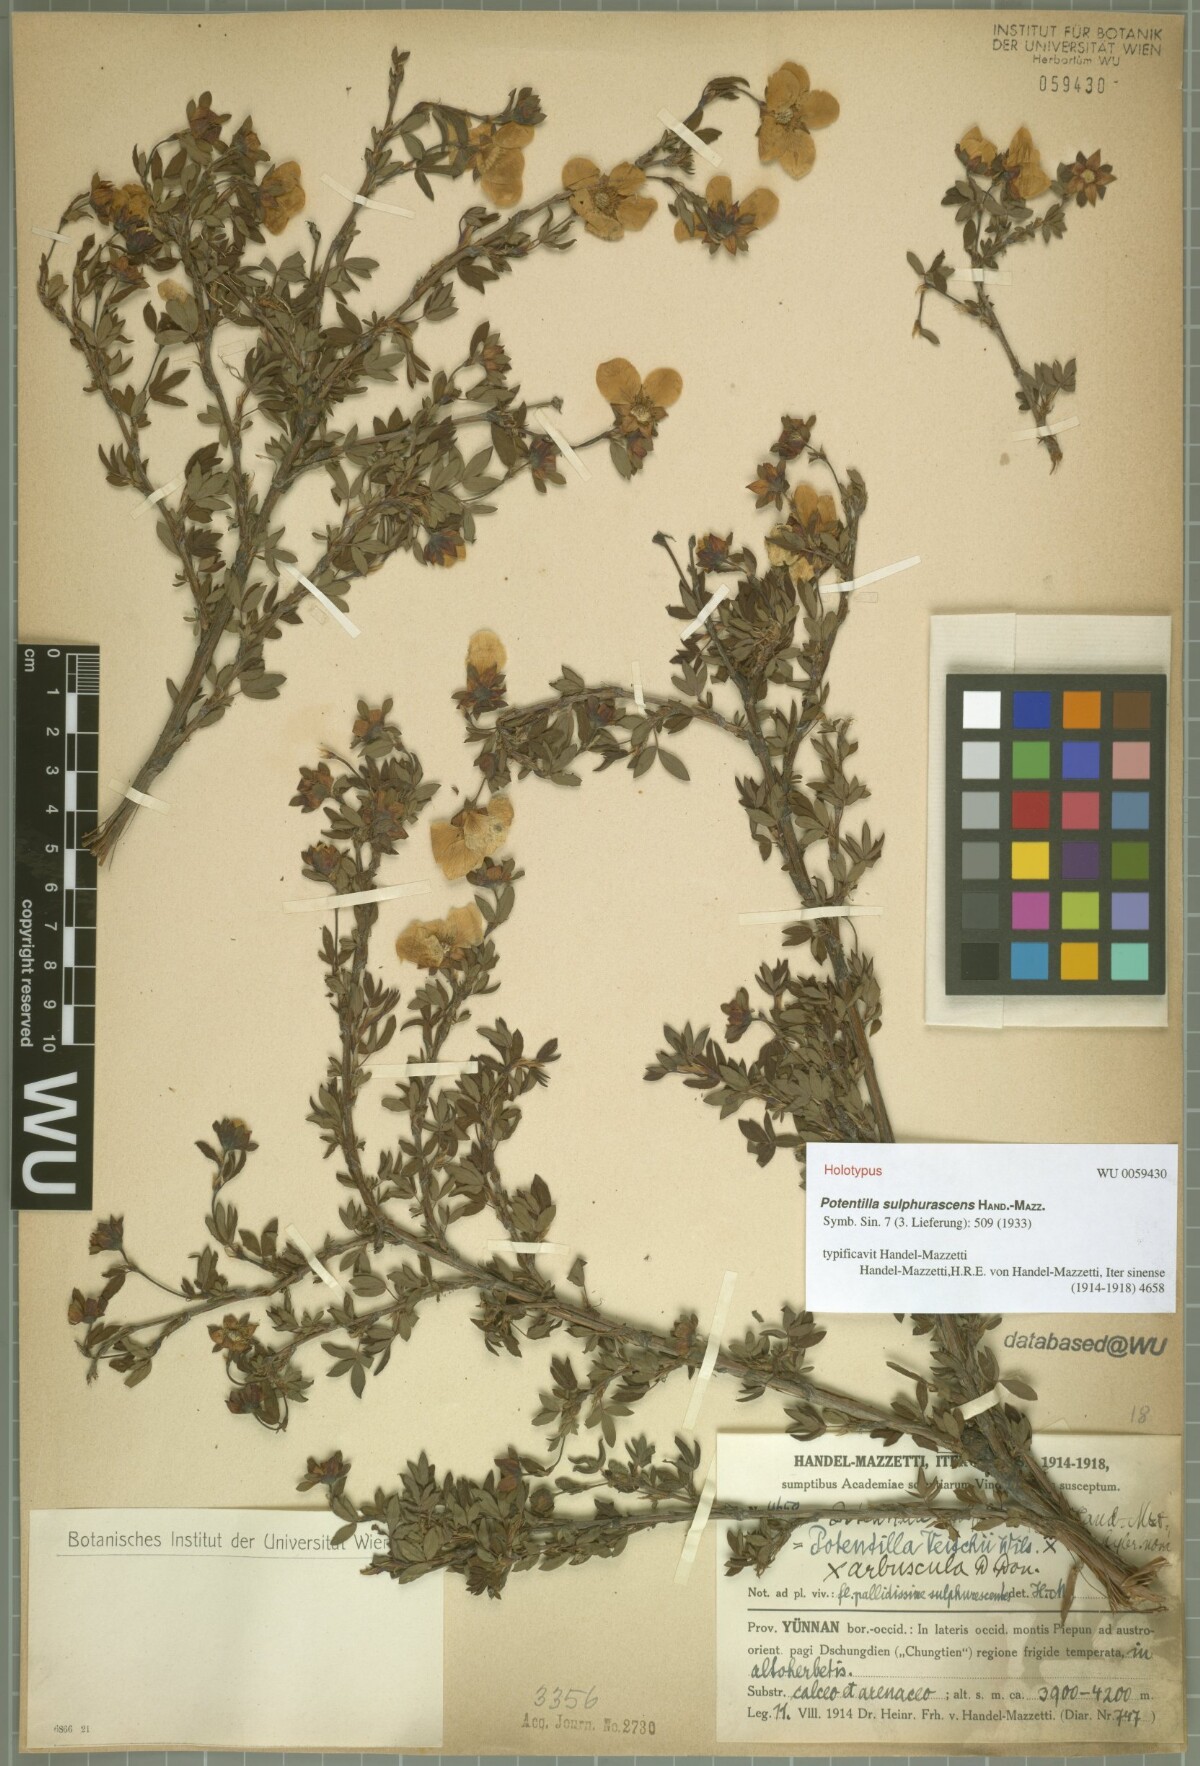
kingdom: Plantae
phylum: Tracheophyta
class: Magnoliopsida
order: Rosales
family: Rosaceae
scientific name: Rosaceae
